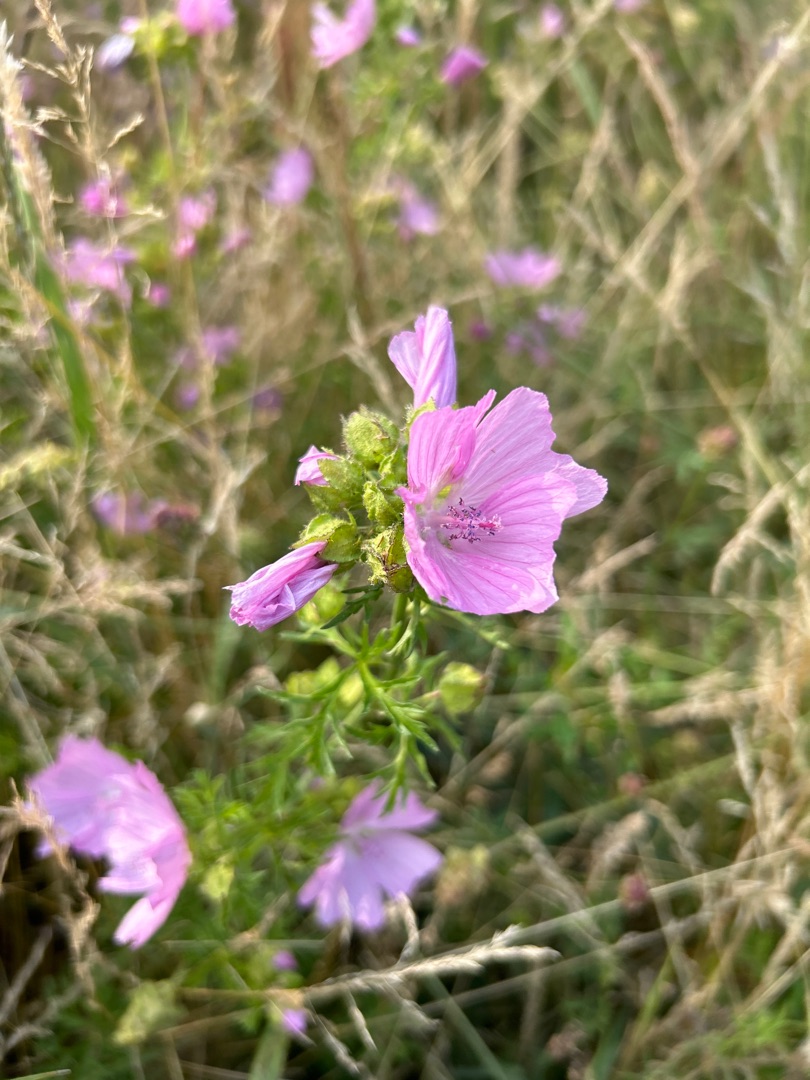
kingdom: Plantae
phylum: Tracheophyta
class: Magnoliopsida
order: Malvales
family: Malvaceae
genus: Malva
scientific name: Malva moschata
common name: Moskus-katost
